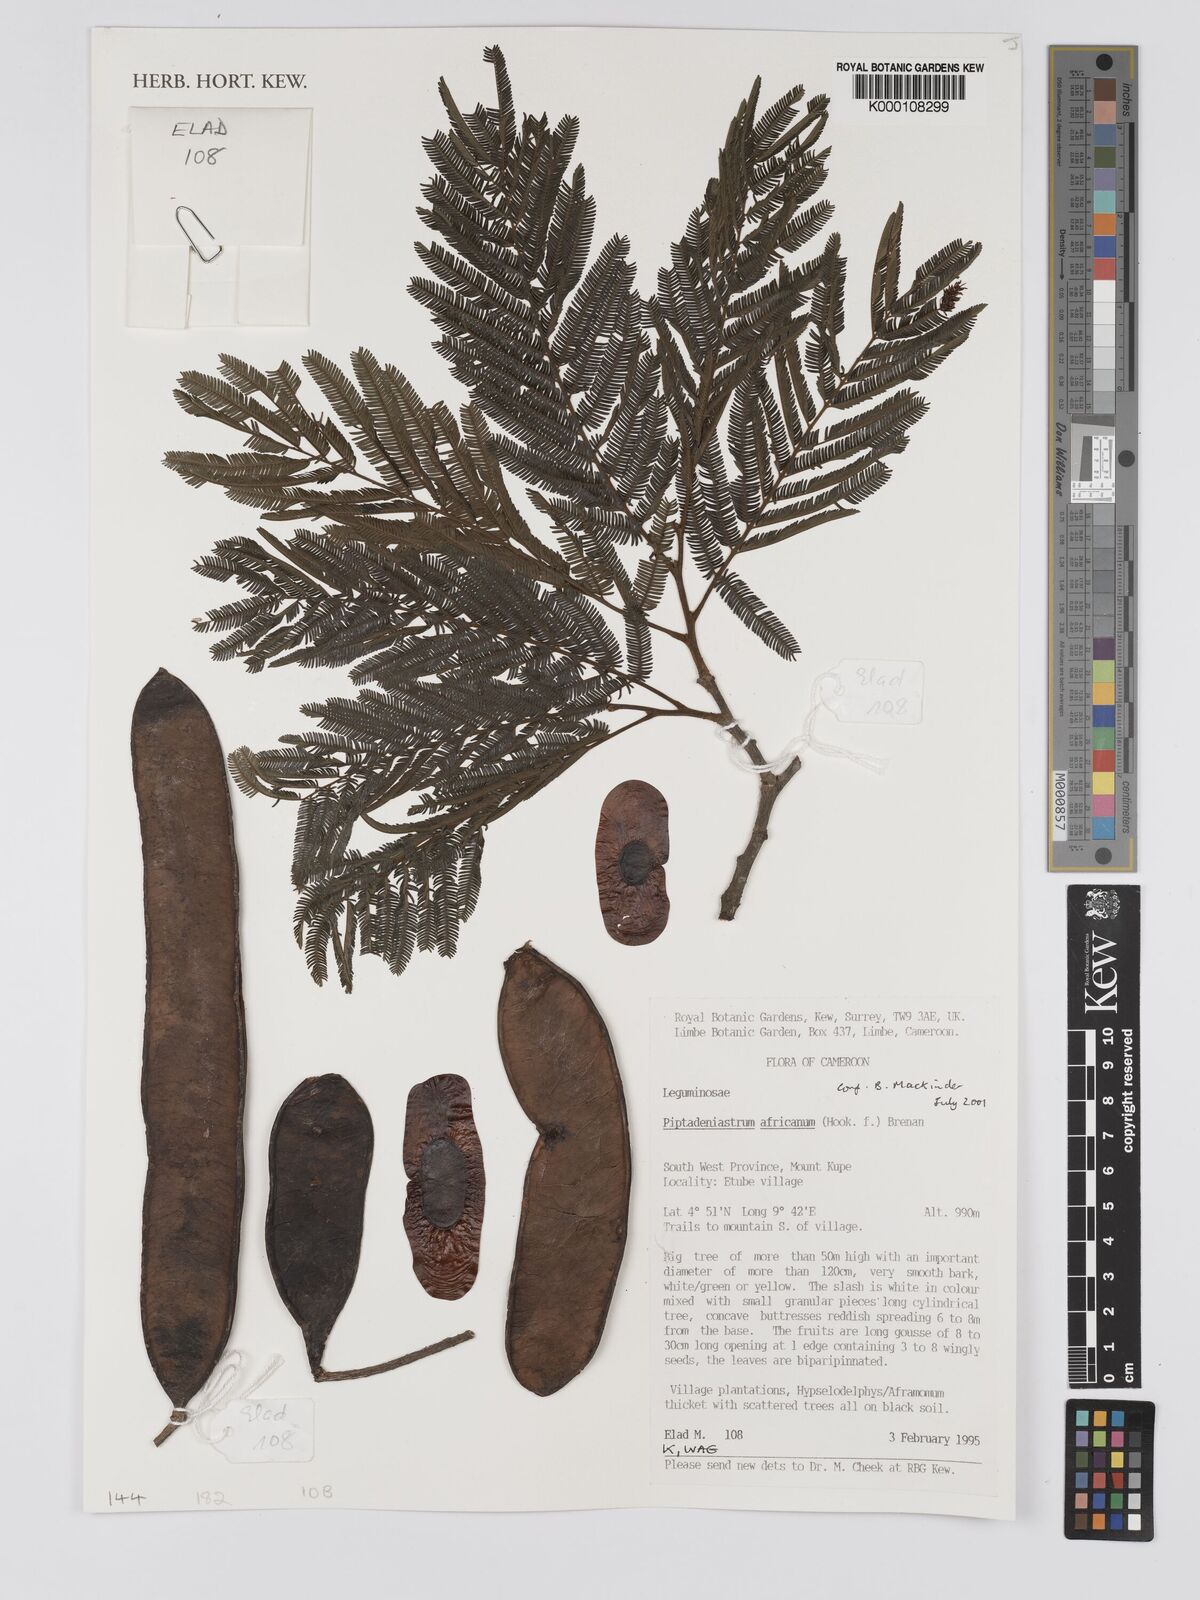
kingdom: Plantae
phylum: Tracheophyta
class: Magnoliopsida
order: Fabales
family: Fabaceae
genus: Piptadeniastrum
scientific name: Piptadeniastrum africanum
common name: African greenheart
